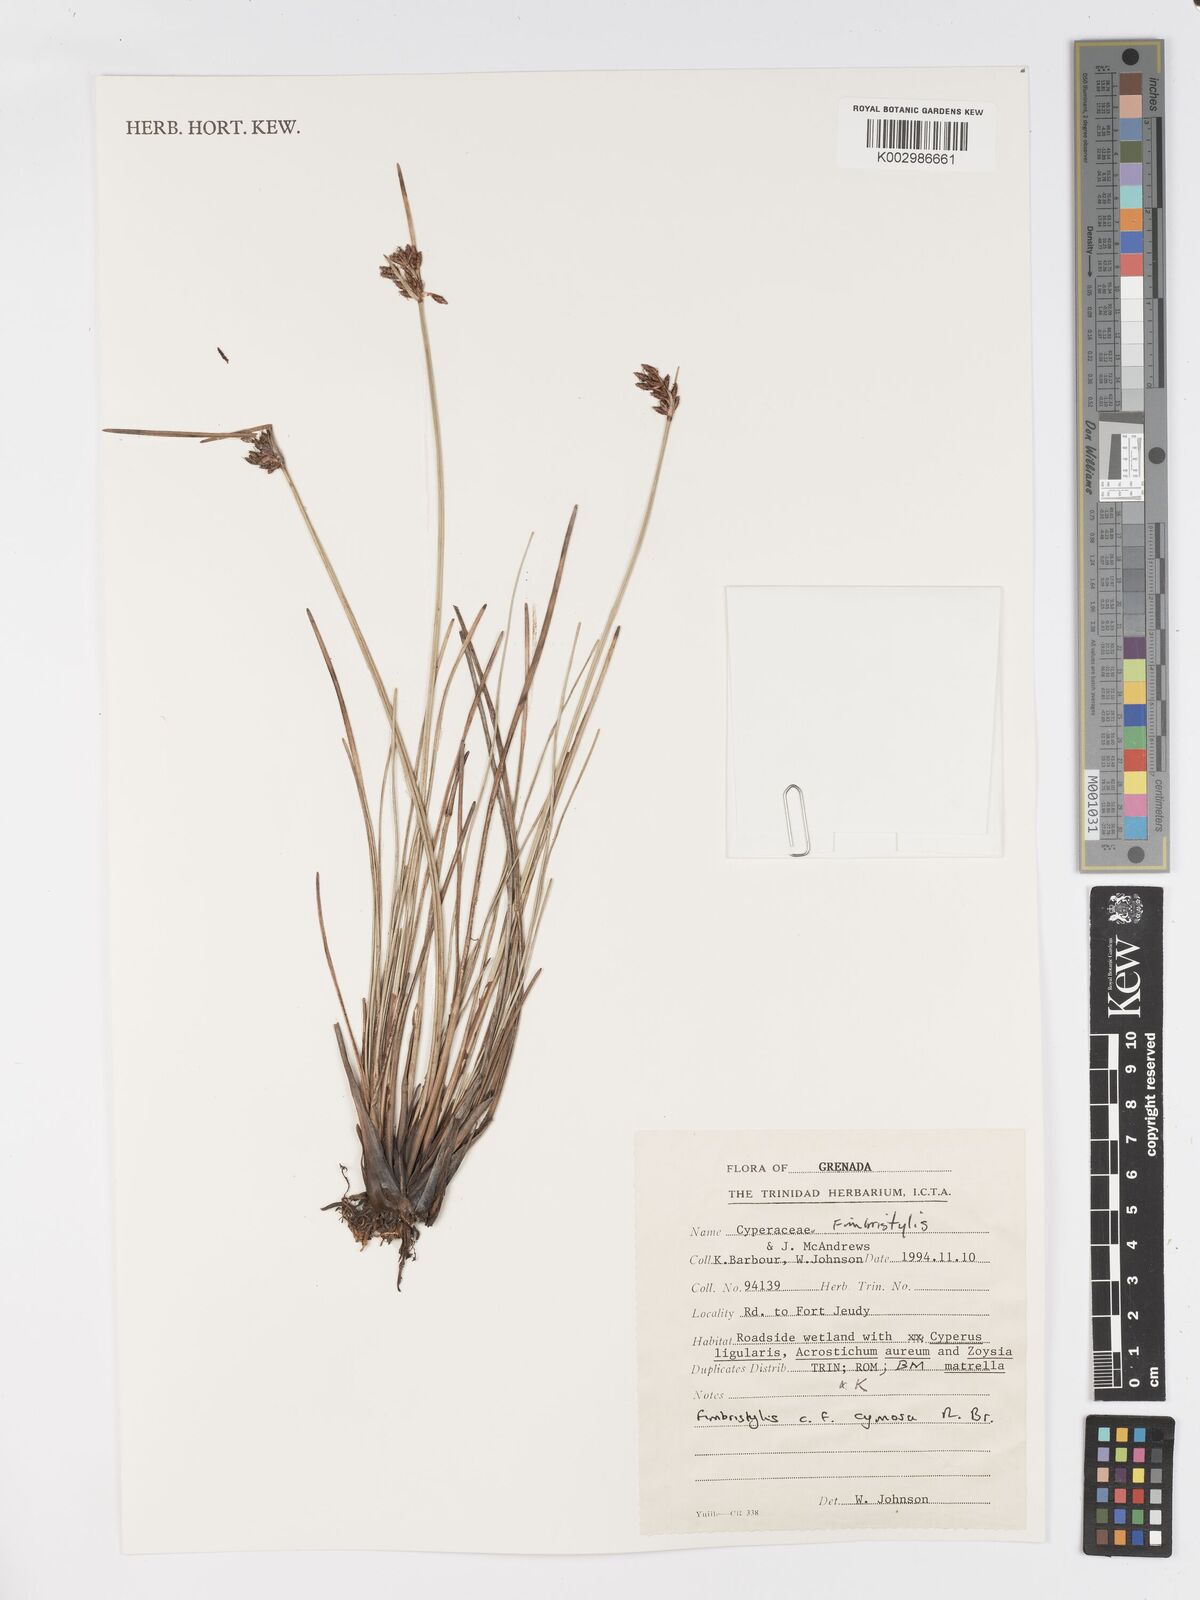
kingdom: Plantae
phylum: Tracheophyta
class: Liliopsida
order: Poales
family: Cyperaceae
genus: Fimbristylis
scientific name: Fimbristylis cymosa
